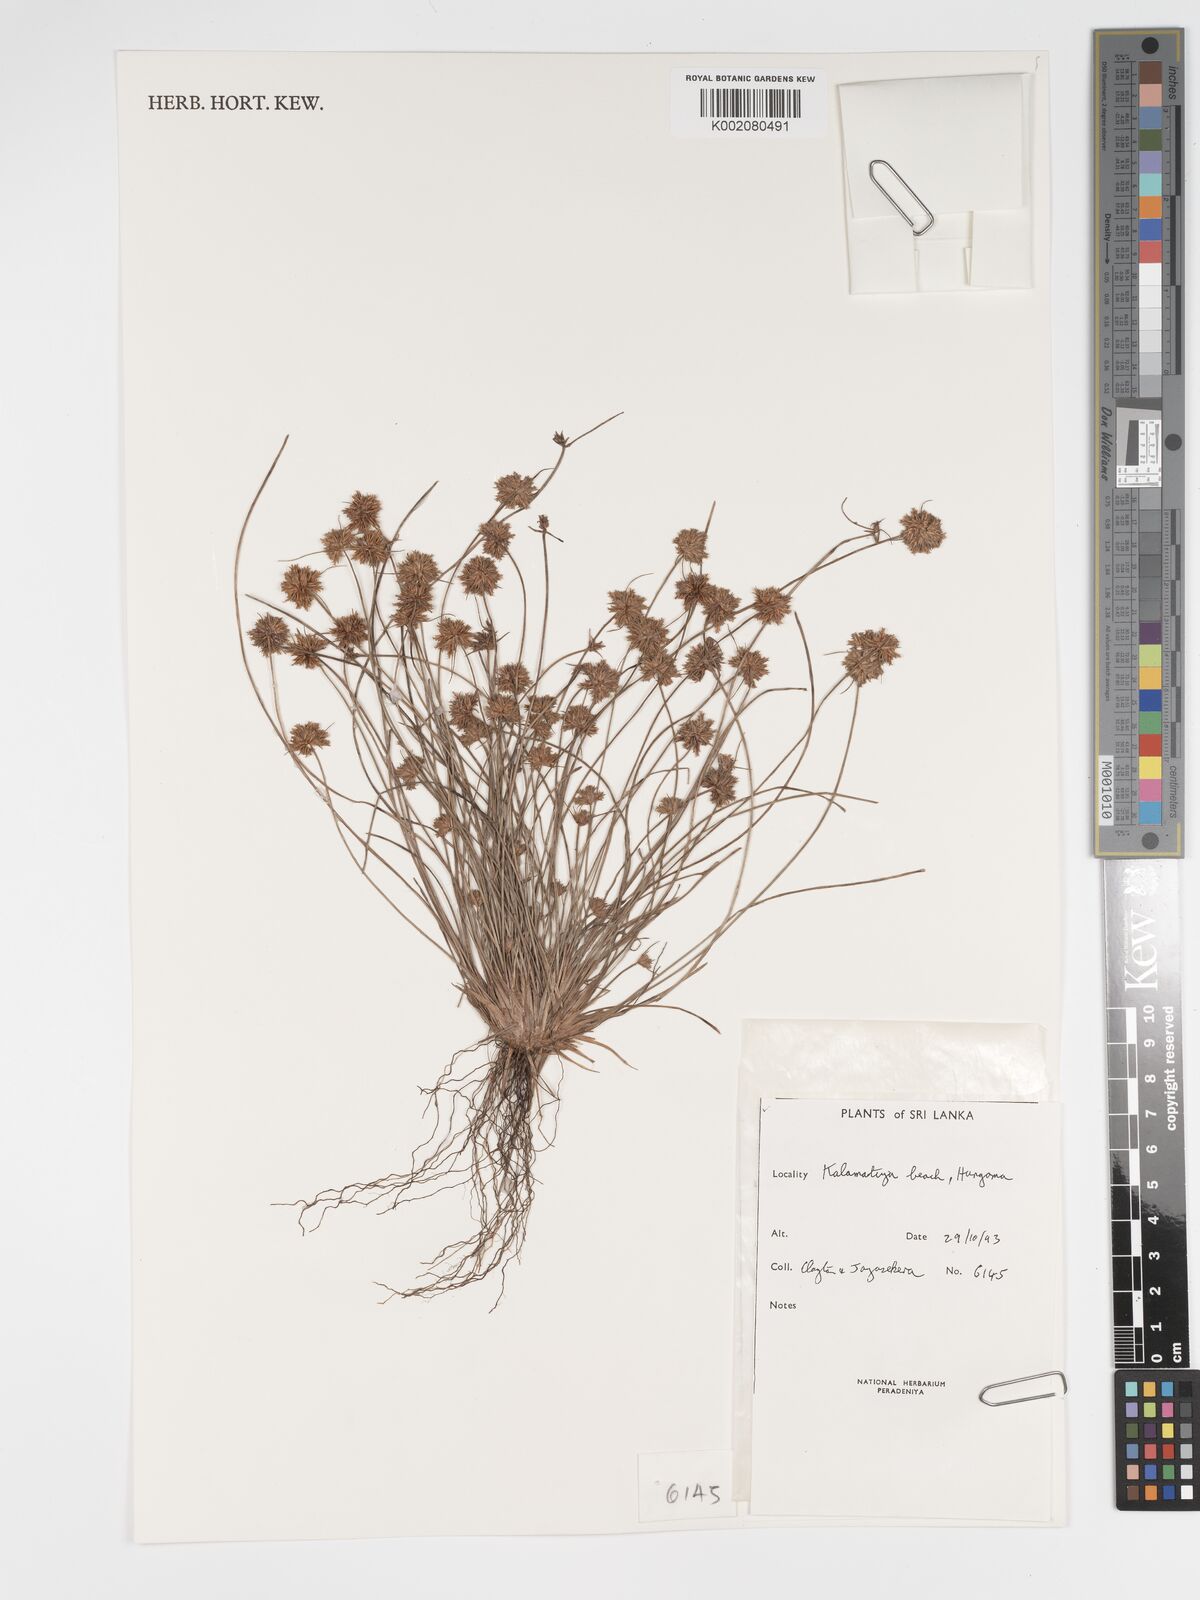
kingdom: Plantae
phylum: Tracheophyta
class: Liliopsida
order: Poales
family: Cyperaceae
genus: Bulbostylis
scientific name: Bulbostylis barbata
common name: Watergrass
